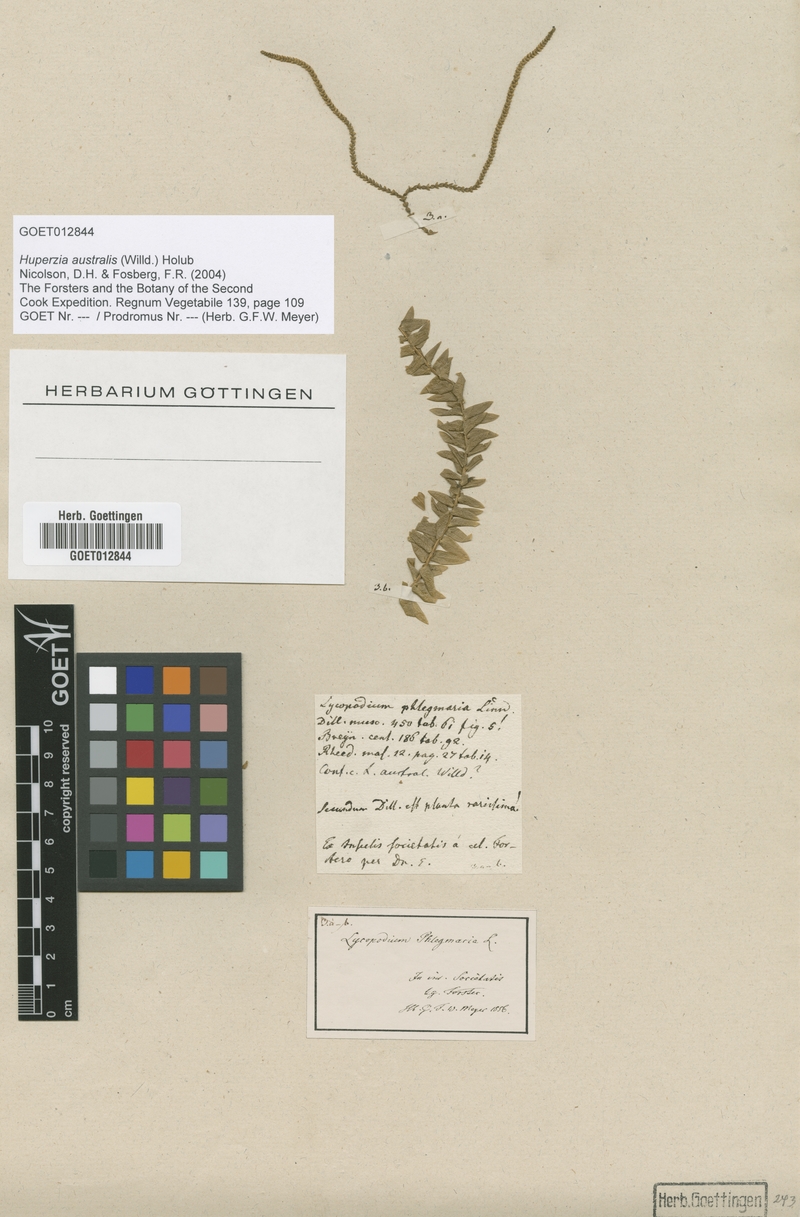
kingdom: Plantae
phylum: Tracheophyta
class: Lycopodiopsida
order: Lycopodiales
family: Lycopodiaceae
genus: Phlegmariurus
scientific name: Phlegmariurus australis
